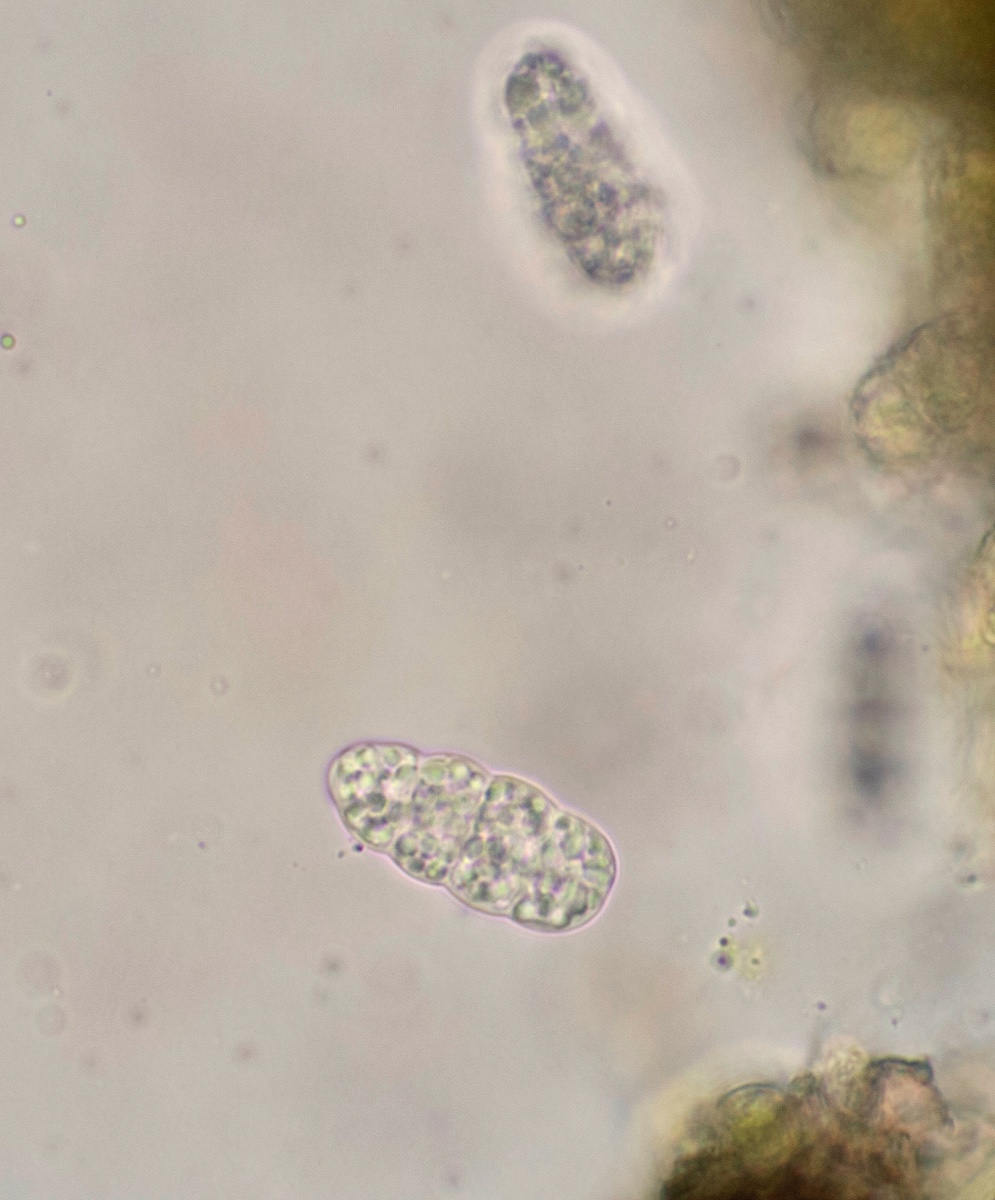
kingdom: Fungi
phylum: Ascomycota
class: Lecanoromycetes
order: Rhizocarpales
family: Rhizocarpaceae
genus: Rhizocarpon
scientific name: Rhizocarpon geographicum
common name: gulgrøn landkortlav
